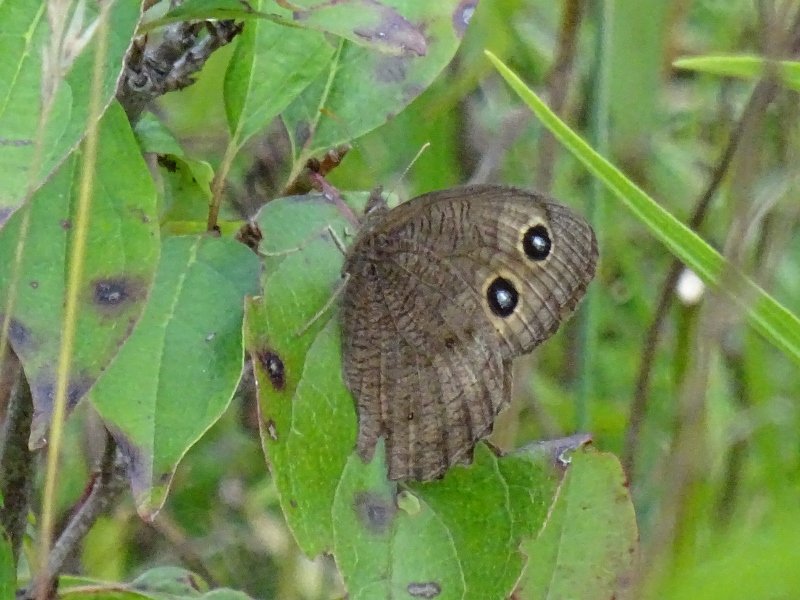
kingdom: Animalia
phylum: Arthropoda
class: Insecta
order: Lepidoptera
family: Nymphalidae
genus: Cercyonis
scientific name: Cercyonis pegala
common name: Common Wood-Nymph
